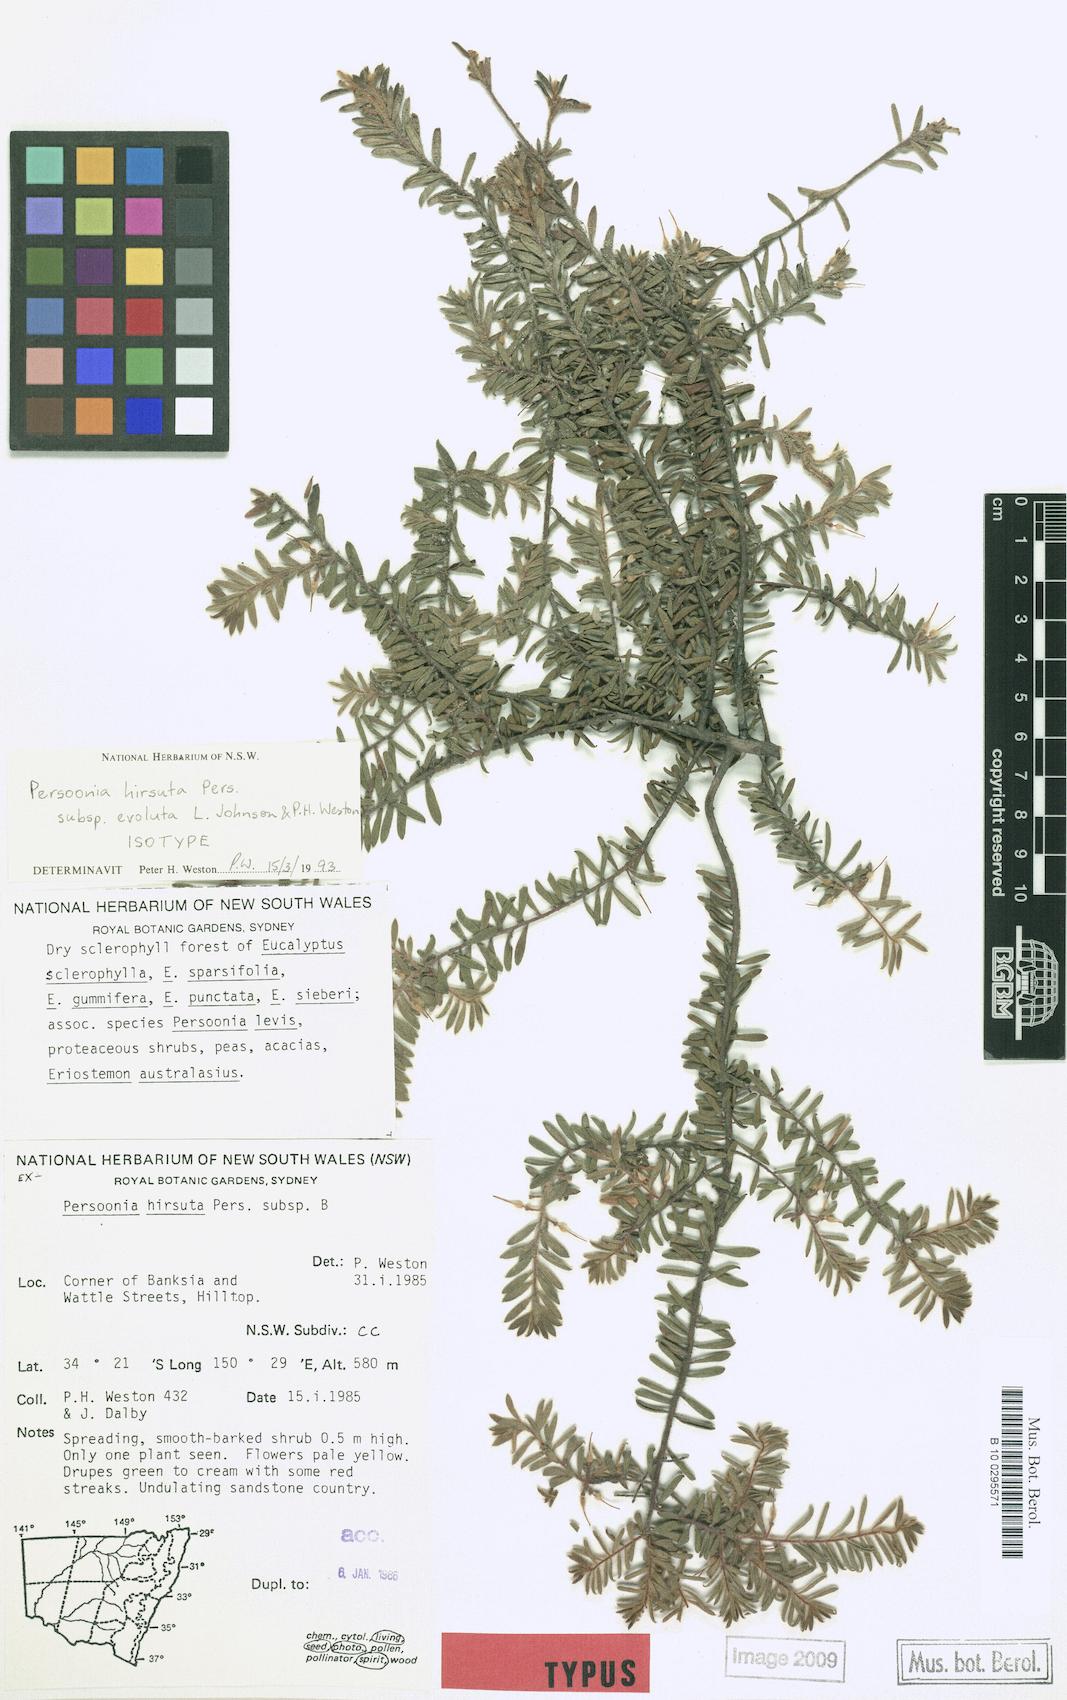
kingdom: Plantae
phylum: Tracheophyta
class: Magnoliopsida
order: Proteales
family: Proteaceae
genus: Persoonia
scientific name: Persoonia hirsuta
